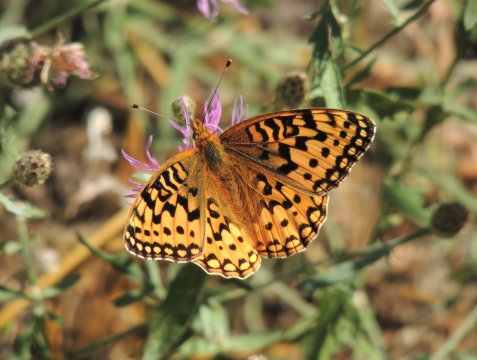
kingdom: Animalia
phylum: Arthropoda
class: Insecta
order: Lepidoptera
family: Nymphalidae
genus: Speyeria
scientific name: Speyeria coronis
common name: Coronis Fritillary
